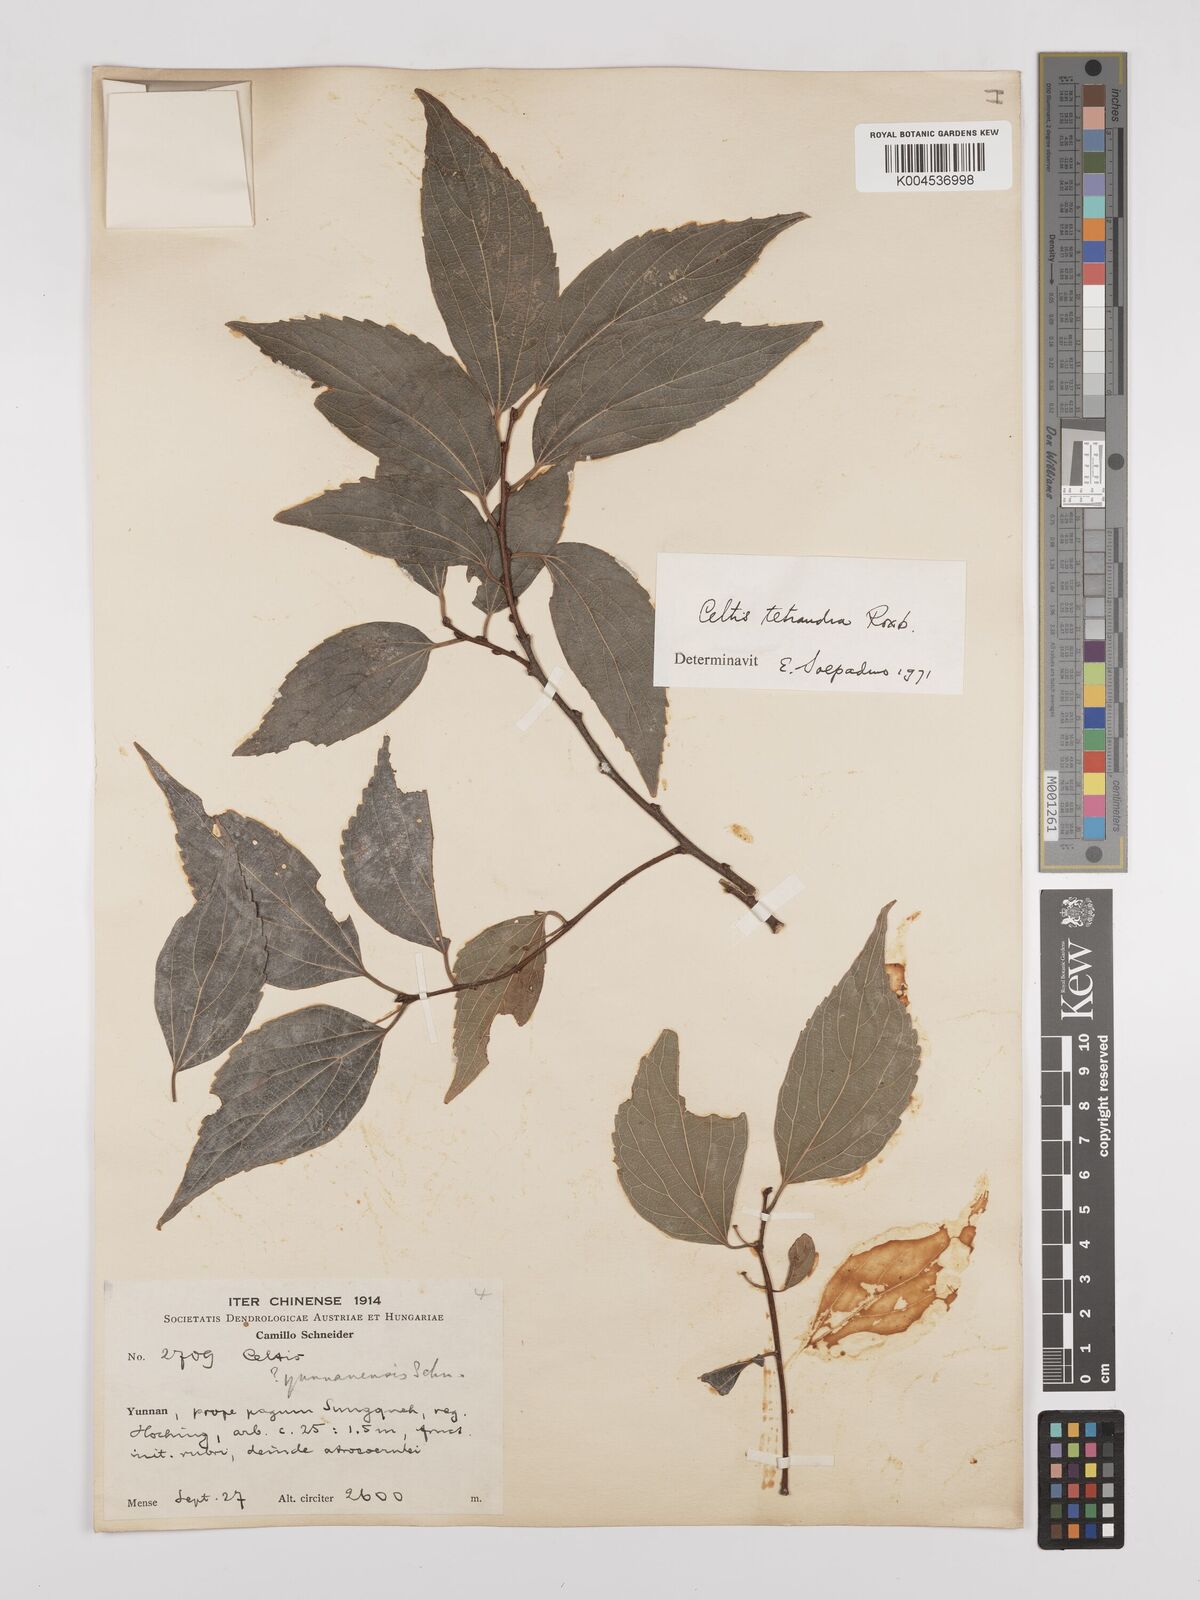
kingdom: Plantae
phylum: Tracheophyta
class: Magnoliopsida
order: Rosales
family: Cannabaceae
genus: Celtis
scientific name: Celtis tetrandra
